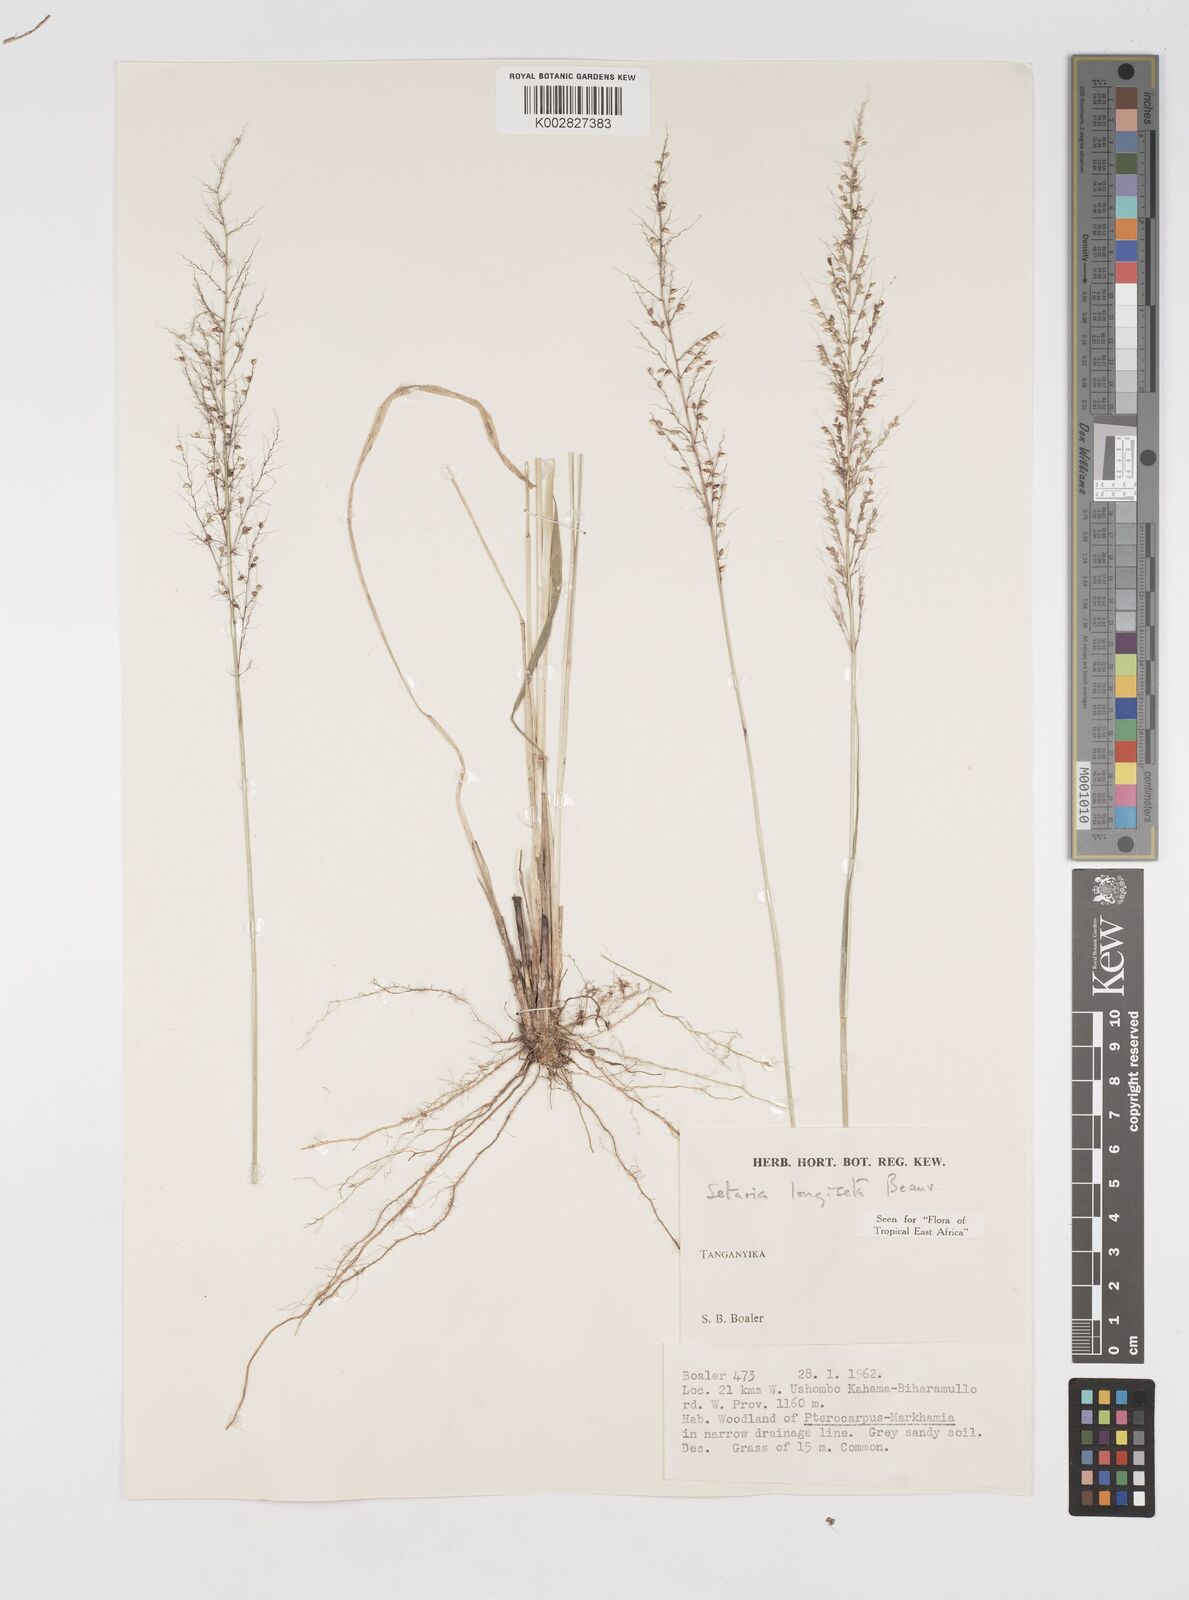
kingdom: Plantae
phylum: Tracheophyta
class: Liliopsida
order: Poales
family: Poaceae
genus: Setaria
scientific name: Setaria longiseta
